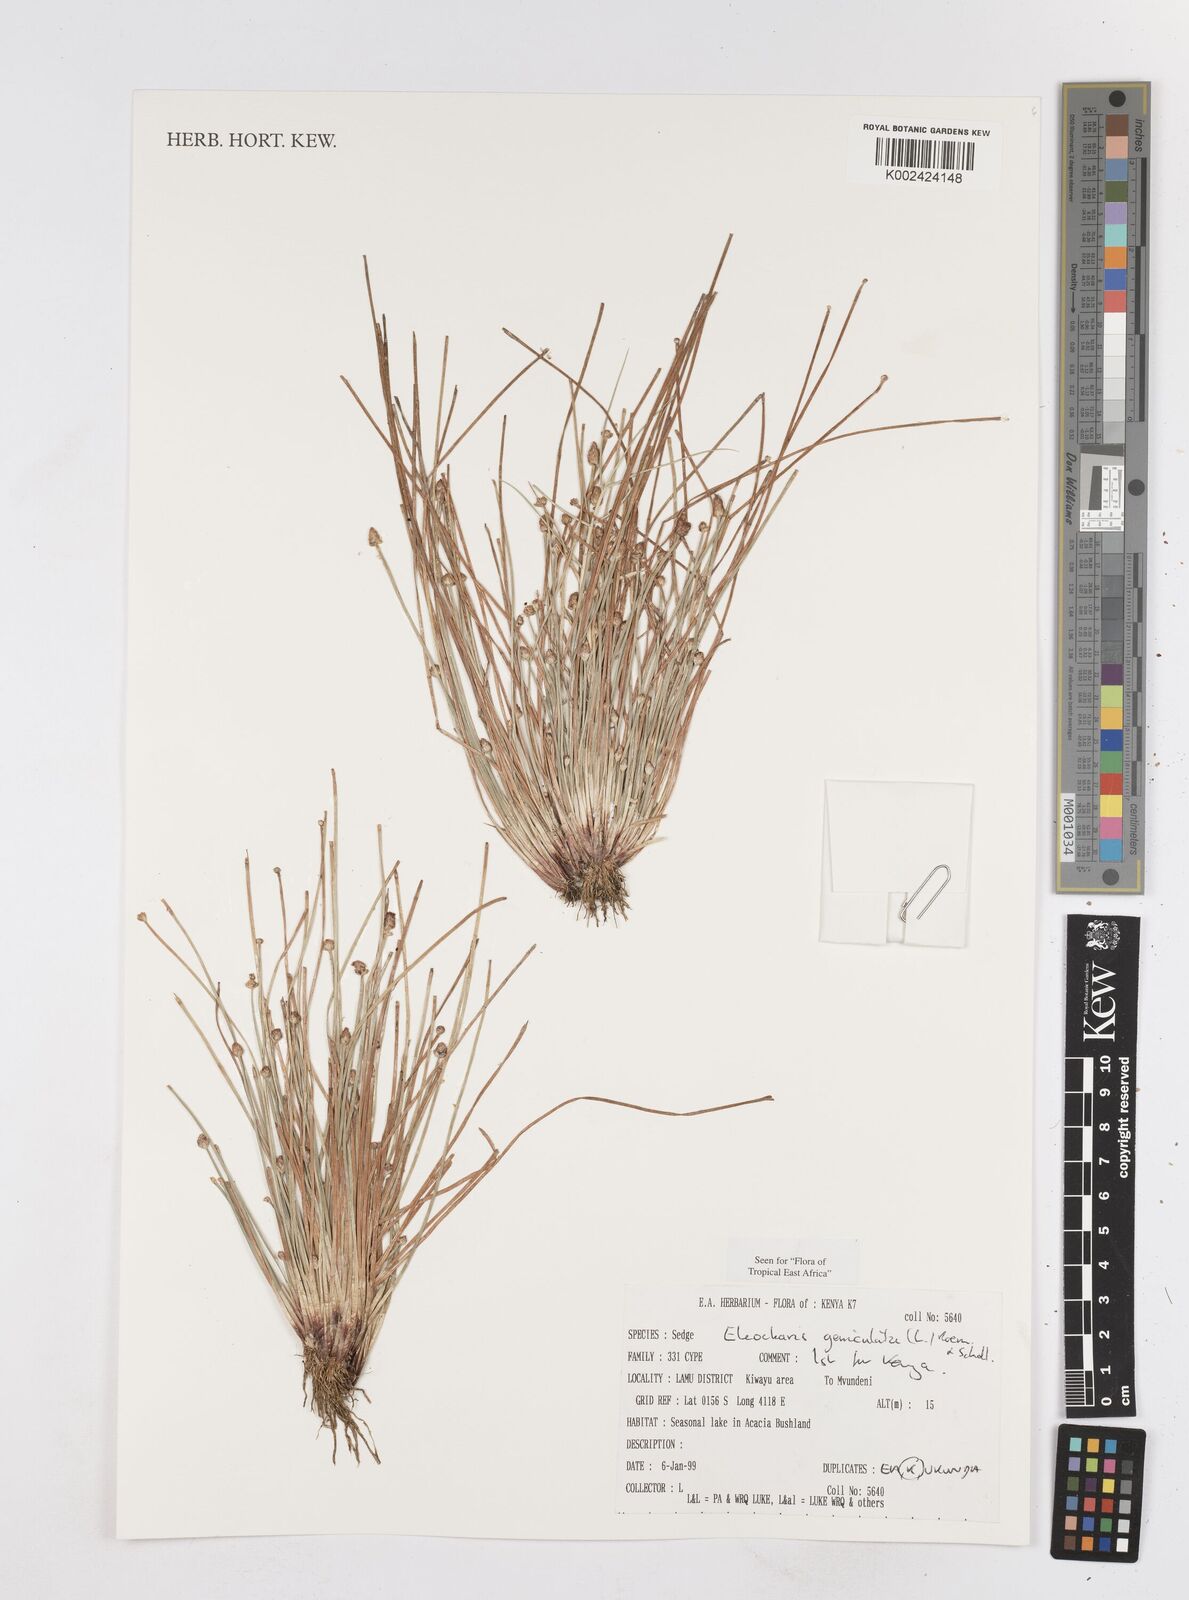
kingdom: Plantae
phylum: Tracheophyta
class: Liliopsida
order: Poales
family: Cyperaceae
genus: Eleocharis
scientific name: Eleocharis geniculata
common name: Canada spikesedge
